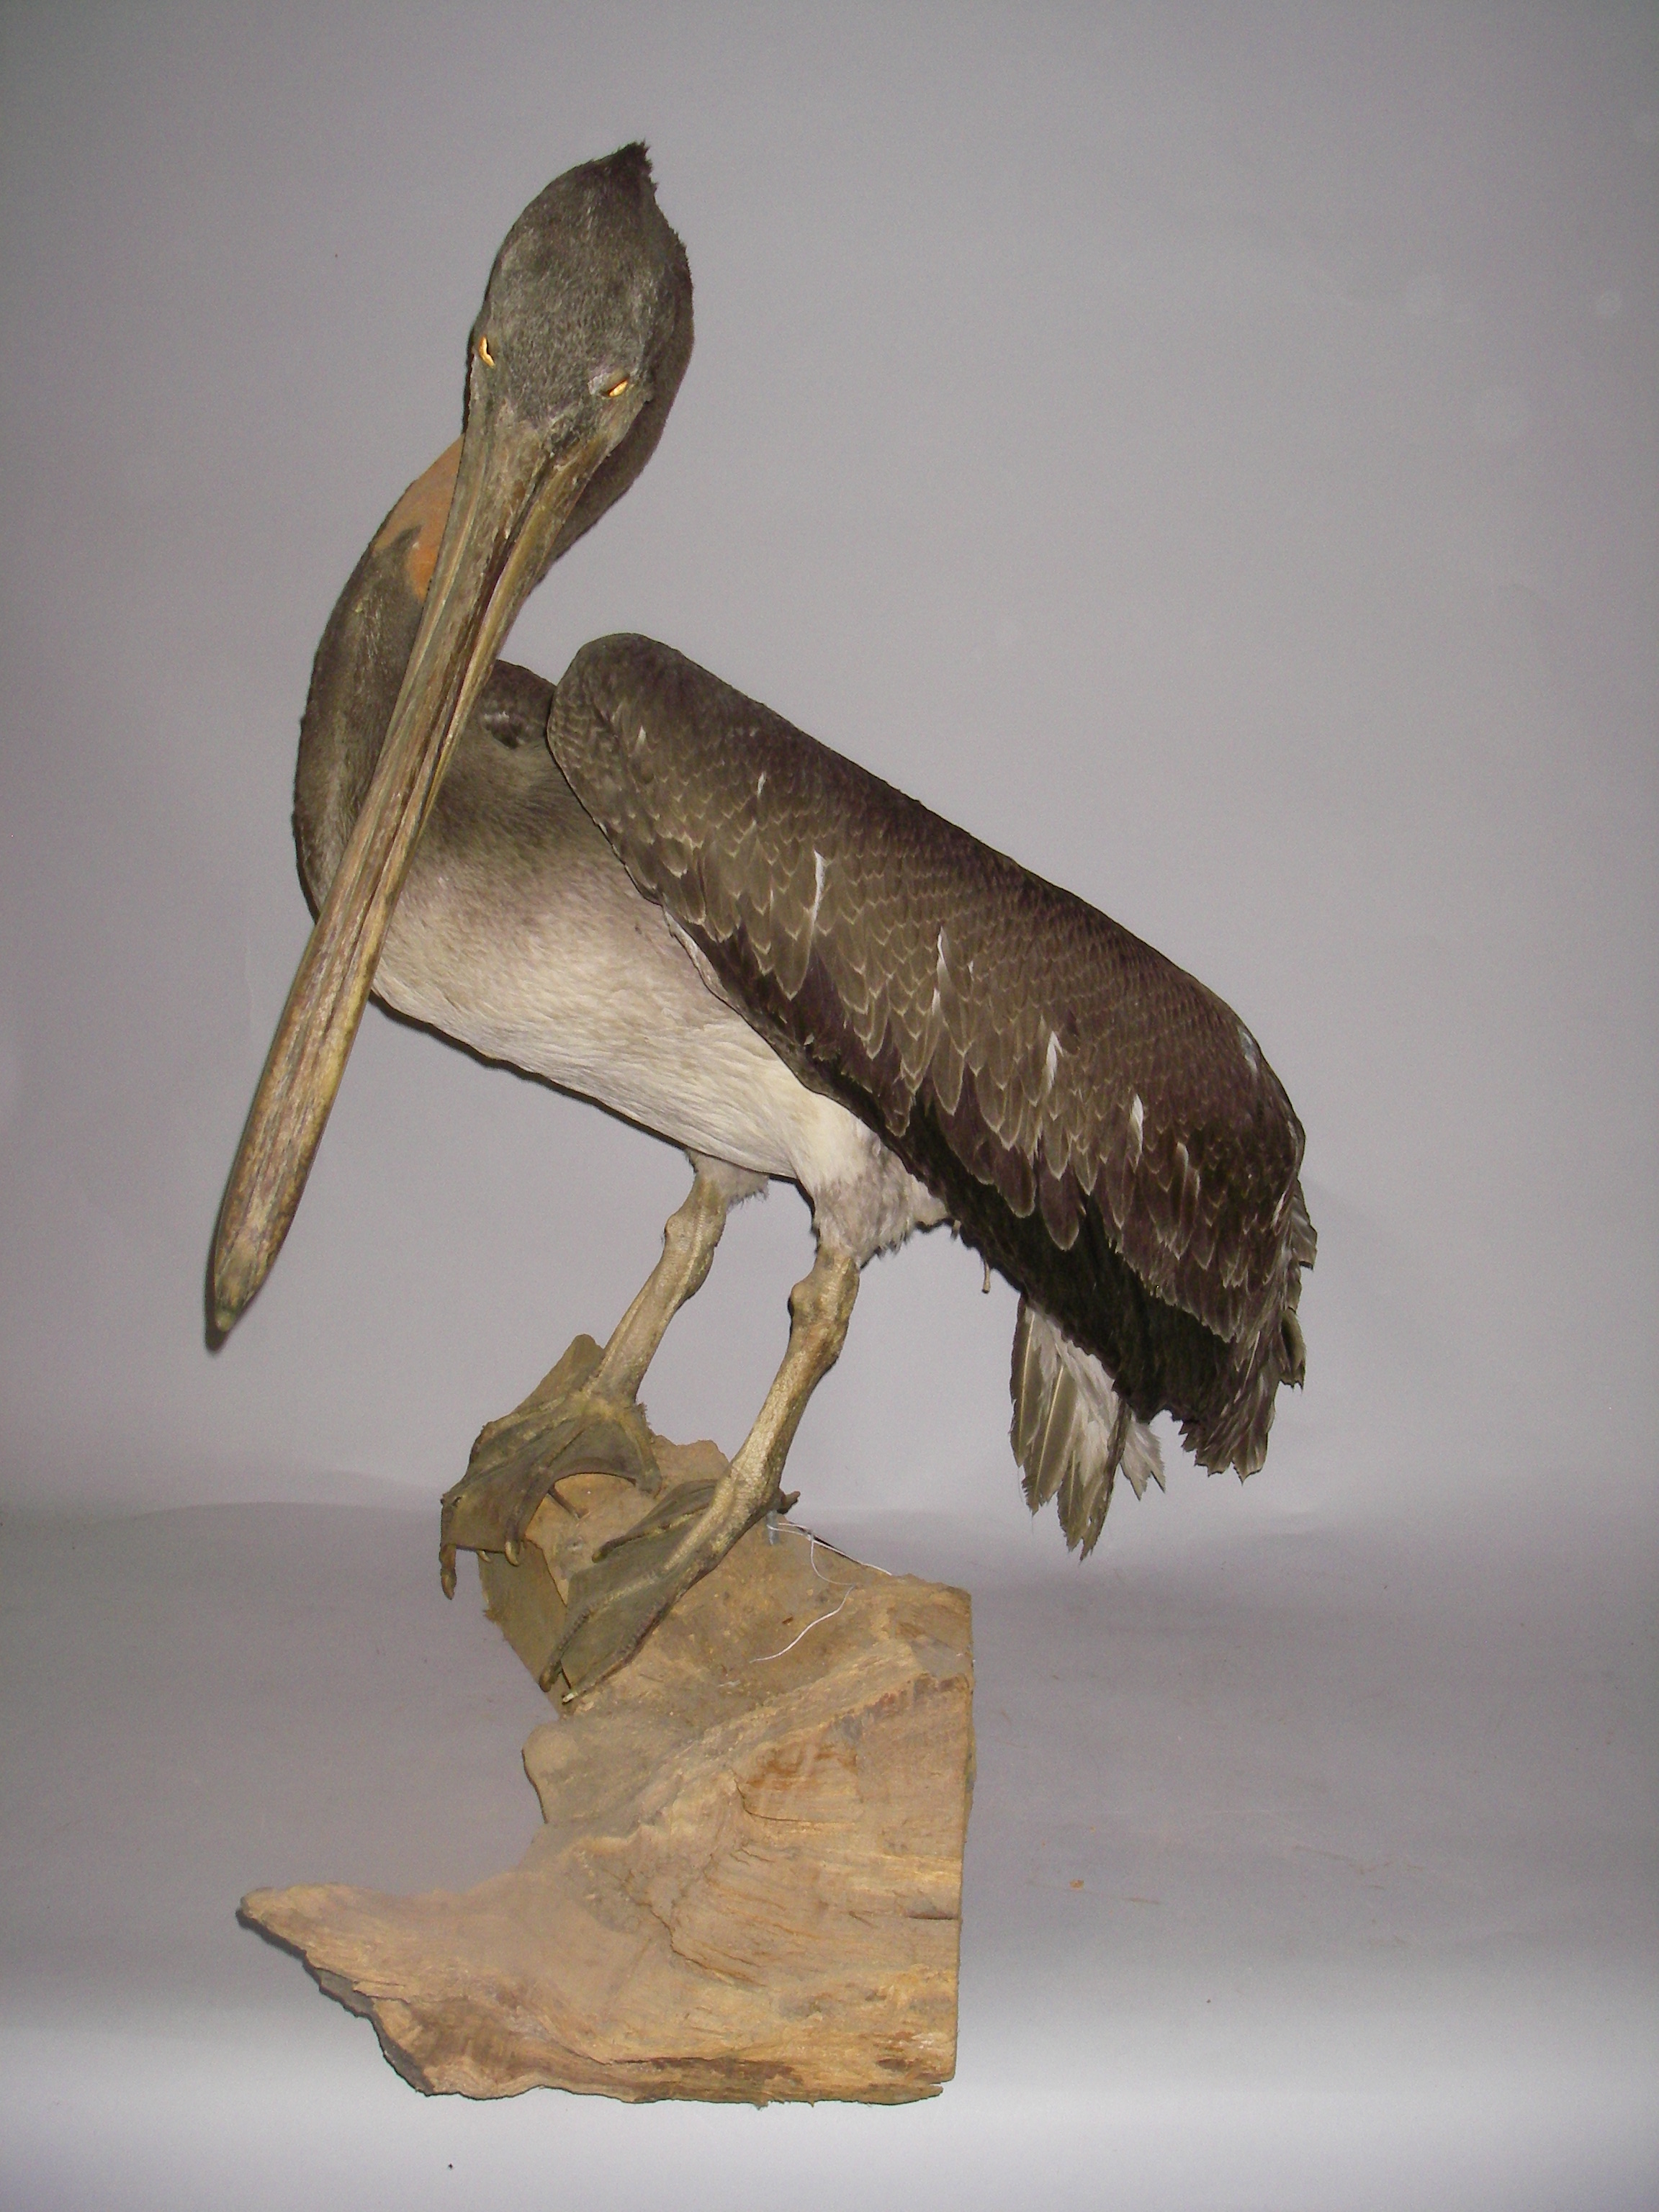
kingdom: Animalia
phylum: Chordata
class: Aves
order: Pelecaniformes
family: Pelecanidae
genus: Pelecanus
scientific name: Pelecanus occidentalis
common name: Brown pelican
